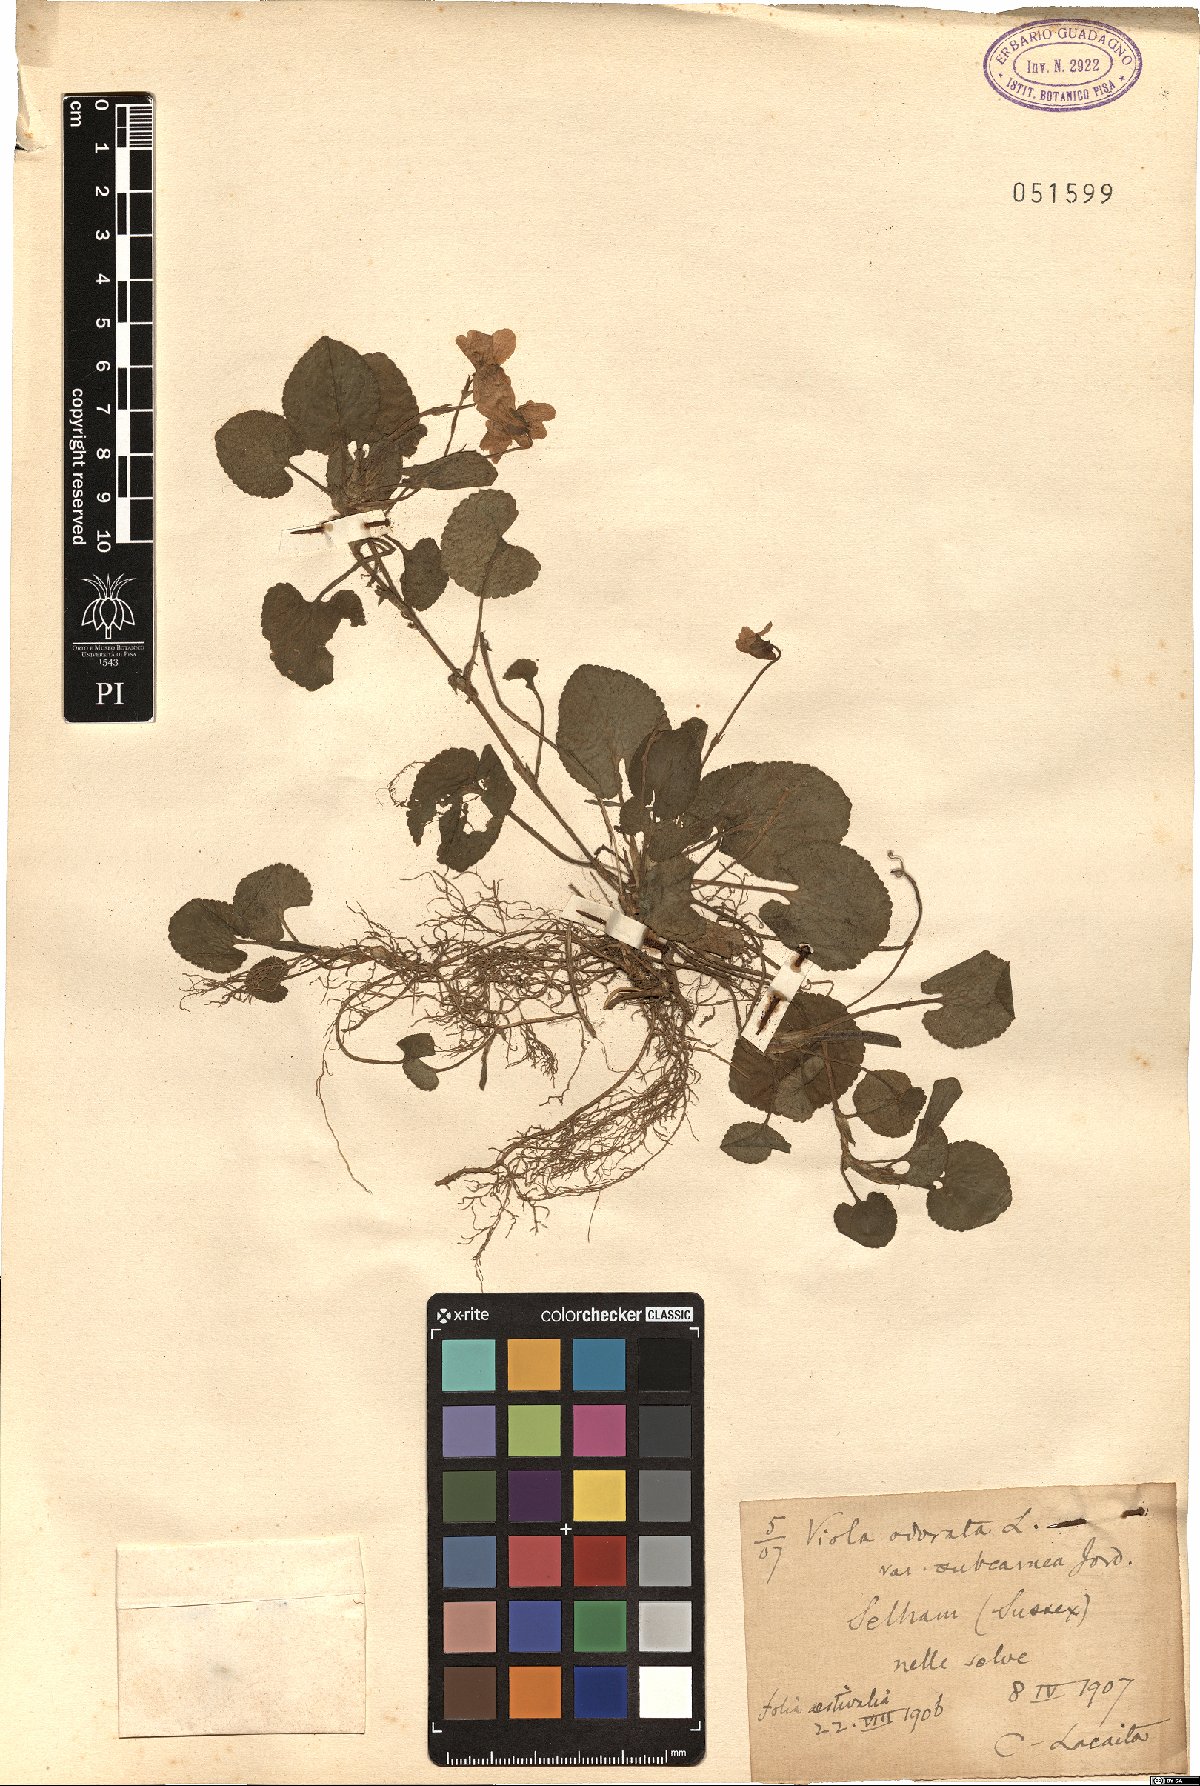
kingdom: Plantae
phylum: Tracheophyta
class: Magnoliopsida
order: Malpighiales
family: Violaceae
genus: Viola
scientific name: Viola odorata
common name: Sweet violet
